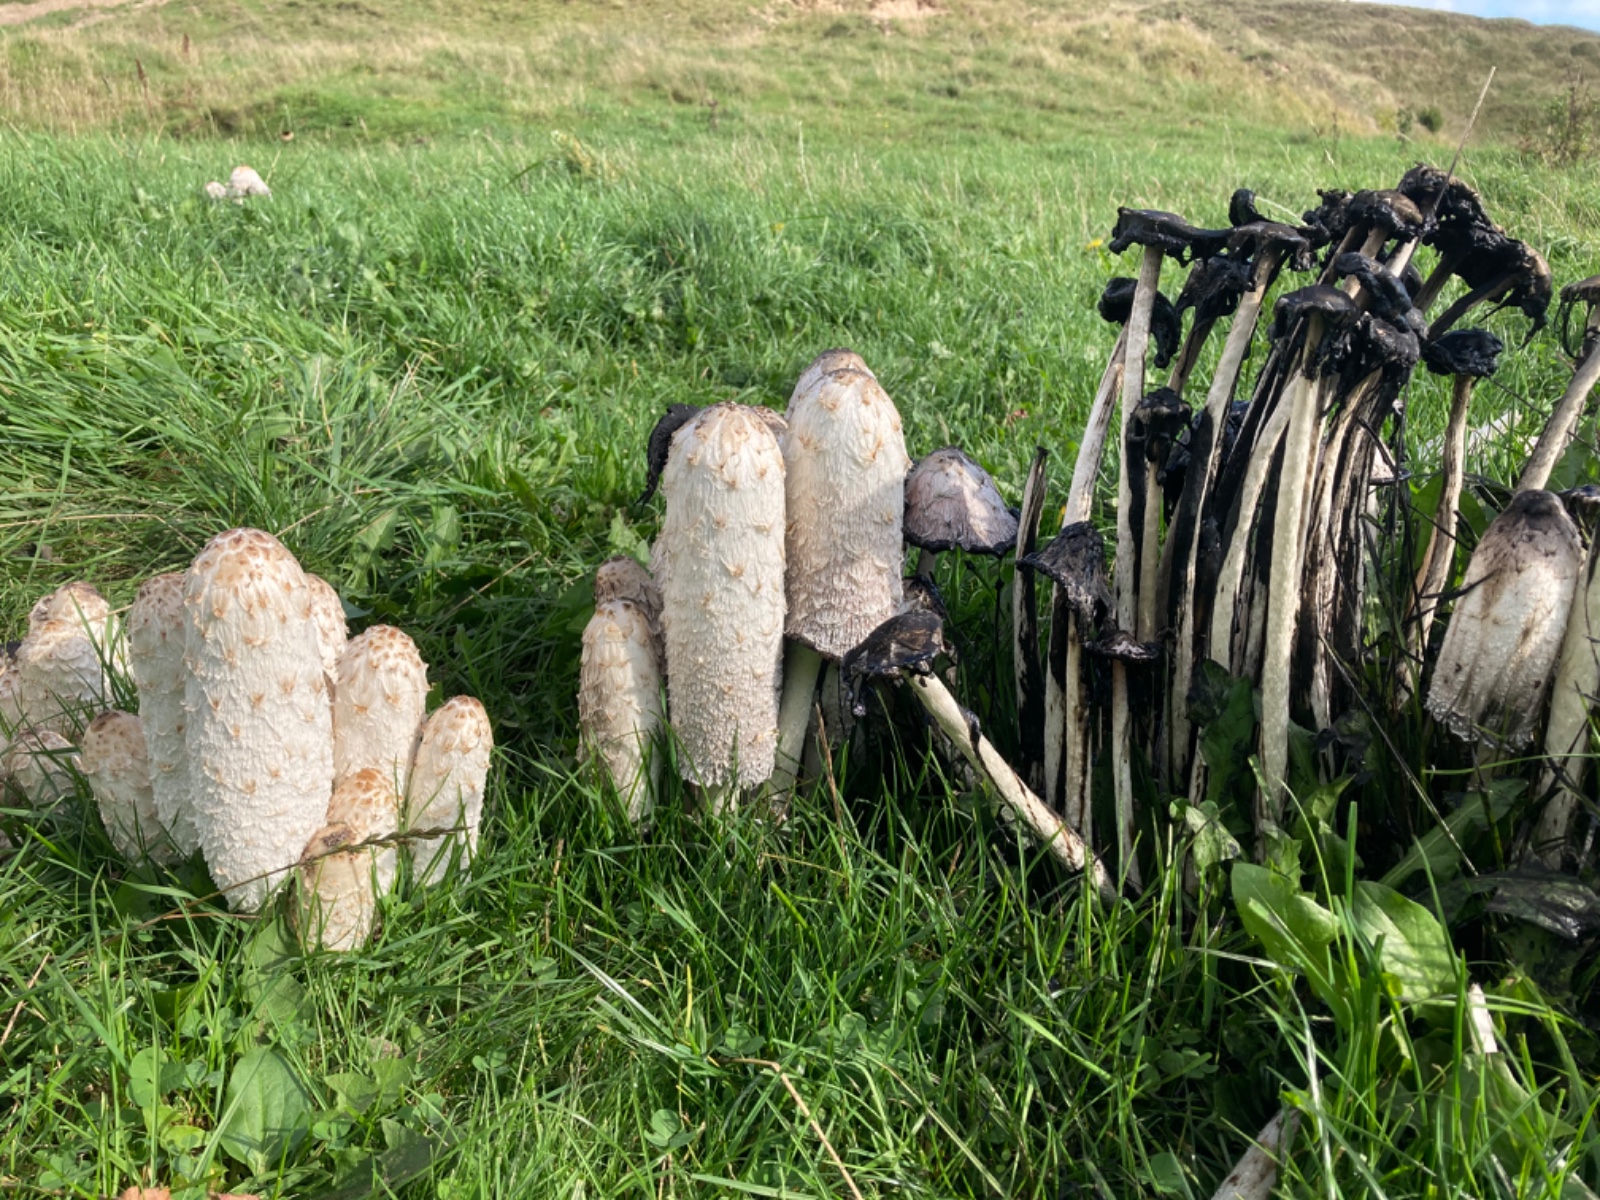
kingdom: Fungi
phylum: Basidiomycota
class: Agaricomycetes
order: Agaricales
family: Agaricaceae
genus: Coprinus
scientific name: Coprinus comatus
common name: stor parykhat
